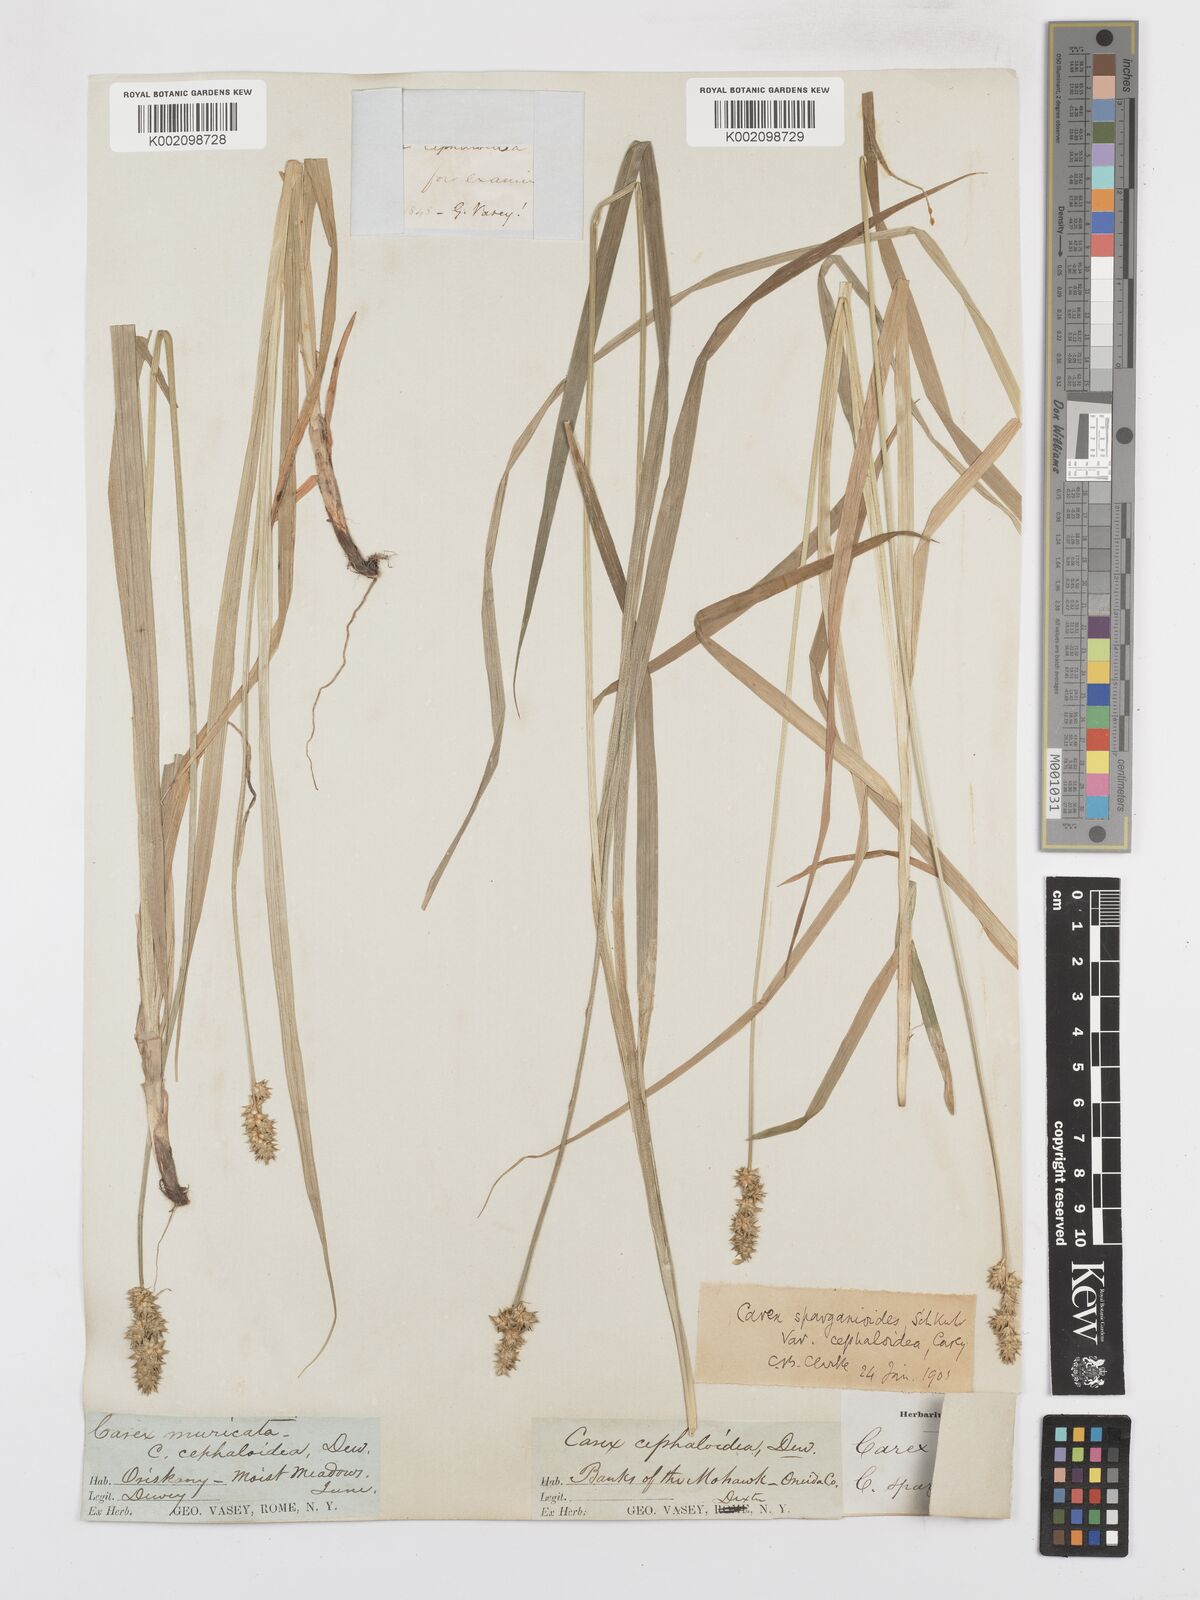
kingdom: Plantae
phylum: Tracheophyta
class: Liliopsida
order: Poales
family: Cyperaceae
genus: Carex
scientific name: Carex cephaloidea
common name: Thin-leaved sedge
